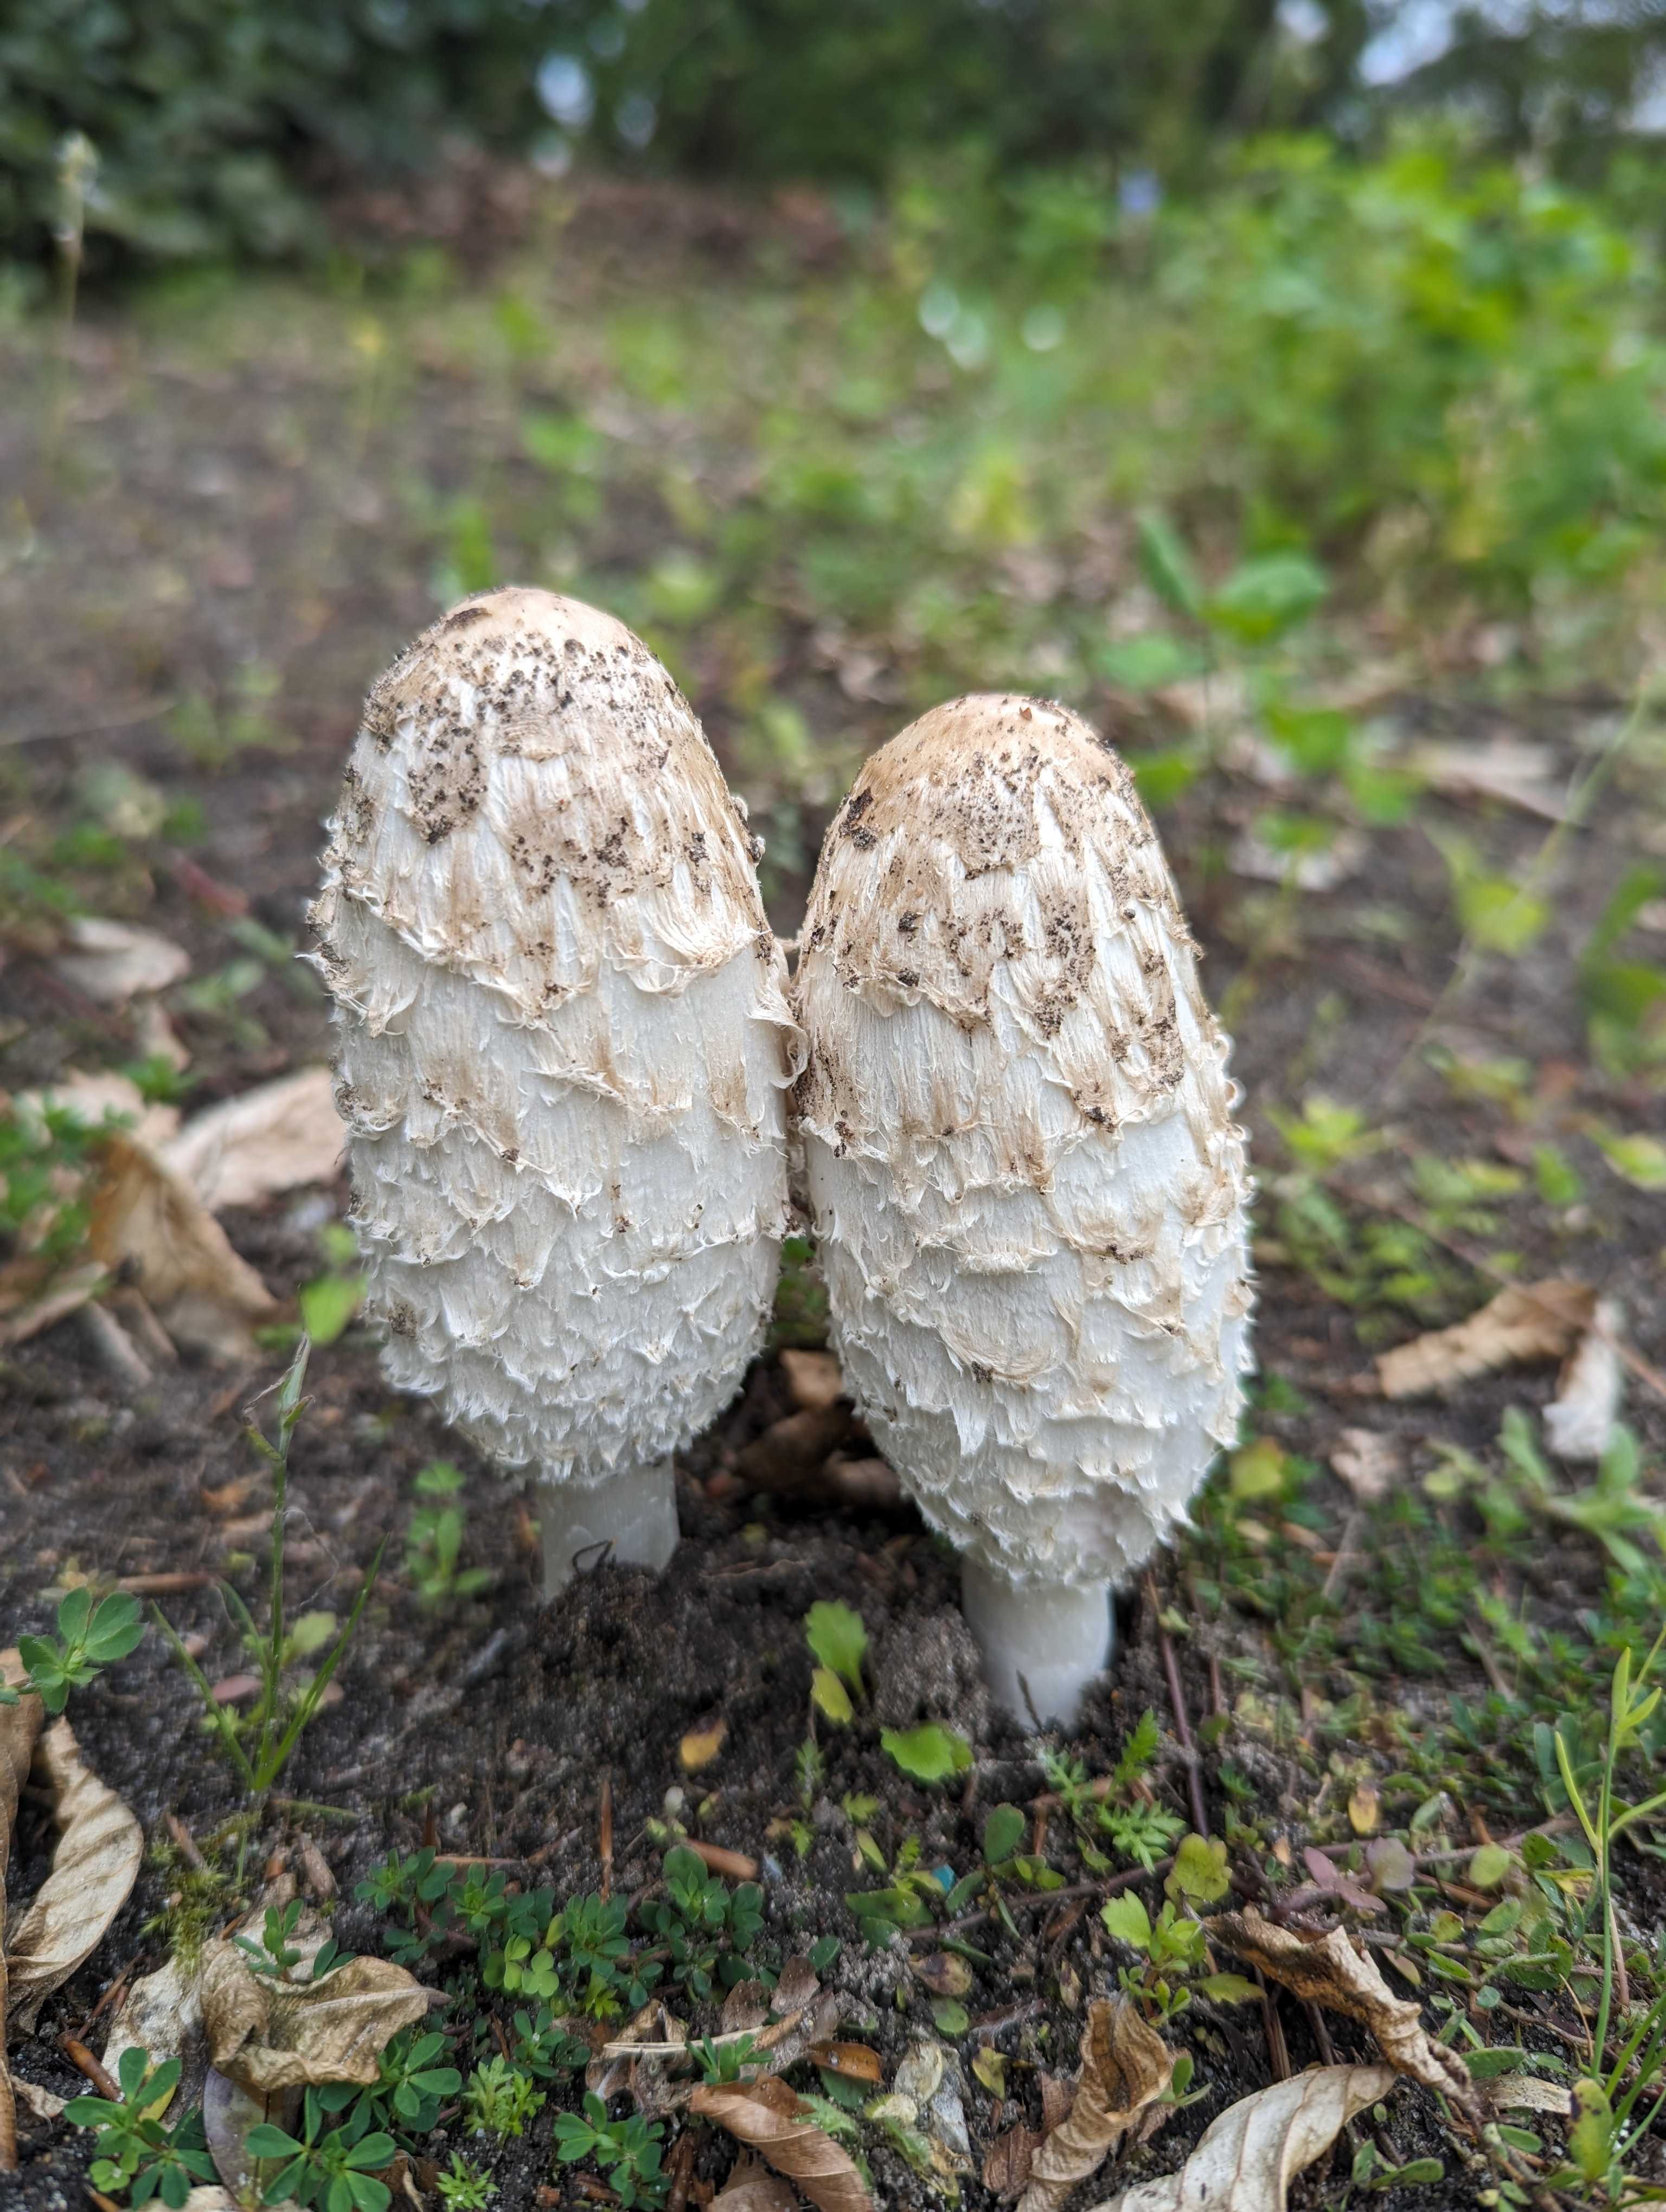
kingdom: Fungi
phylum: Basidiomycota
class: Agaricomycetes
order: Agaricales
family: Agaricaceae
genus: Coprinus
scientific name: Coprinus comatus
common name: stor parykhat
